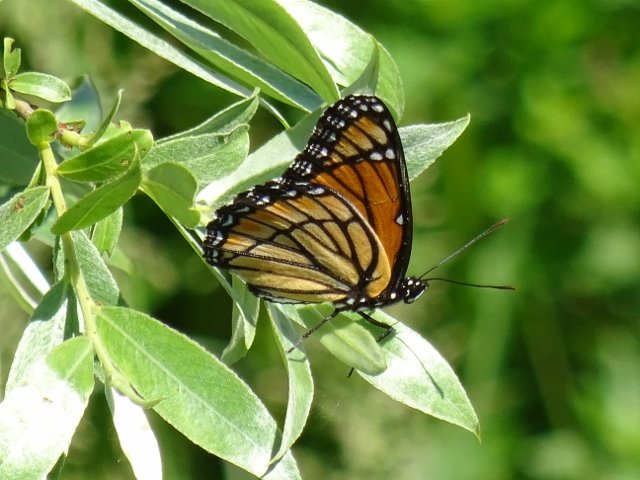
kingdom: Animalia
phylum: Arthropoda
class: Insecta
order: Lepidoptera
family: Nymphalidae
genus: Limenitis
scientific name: Limenitis archippus
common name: Viceroy
